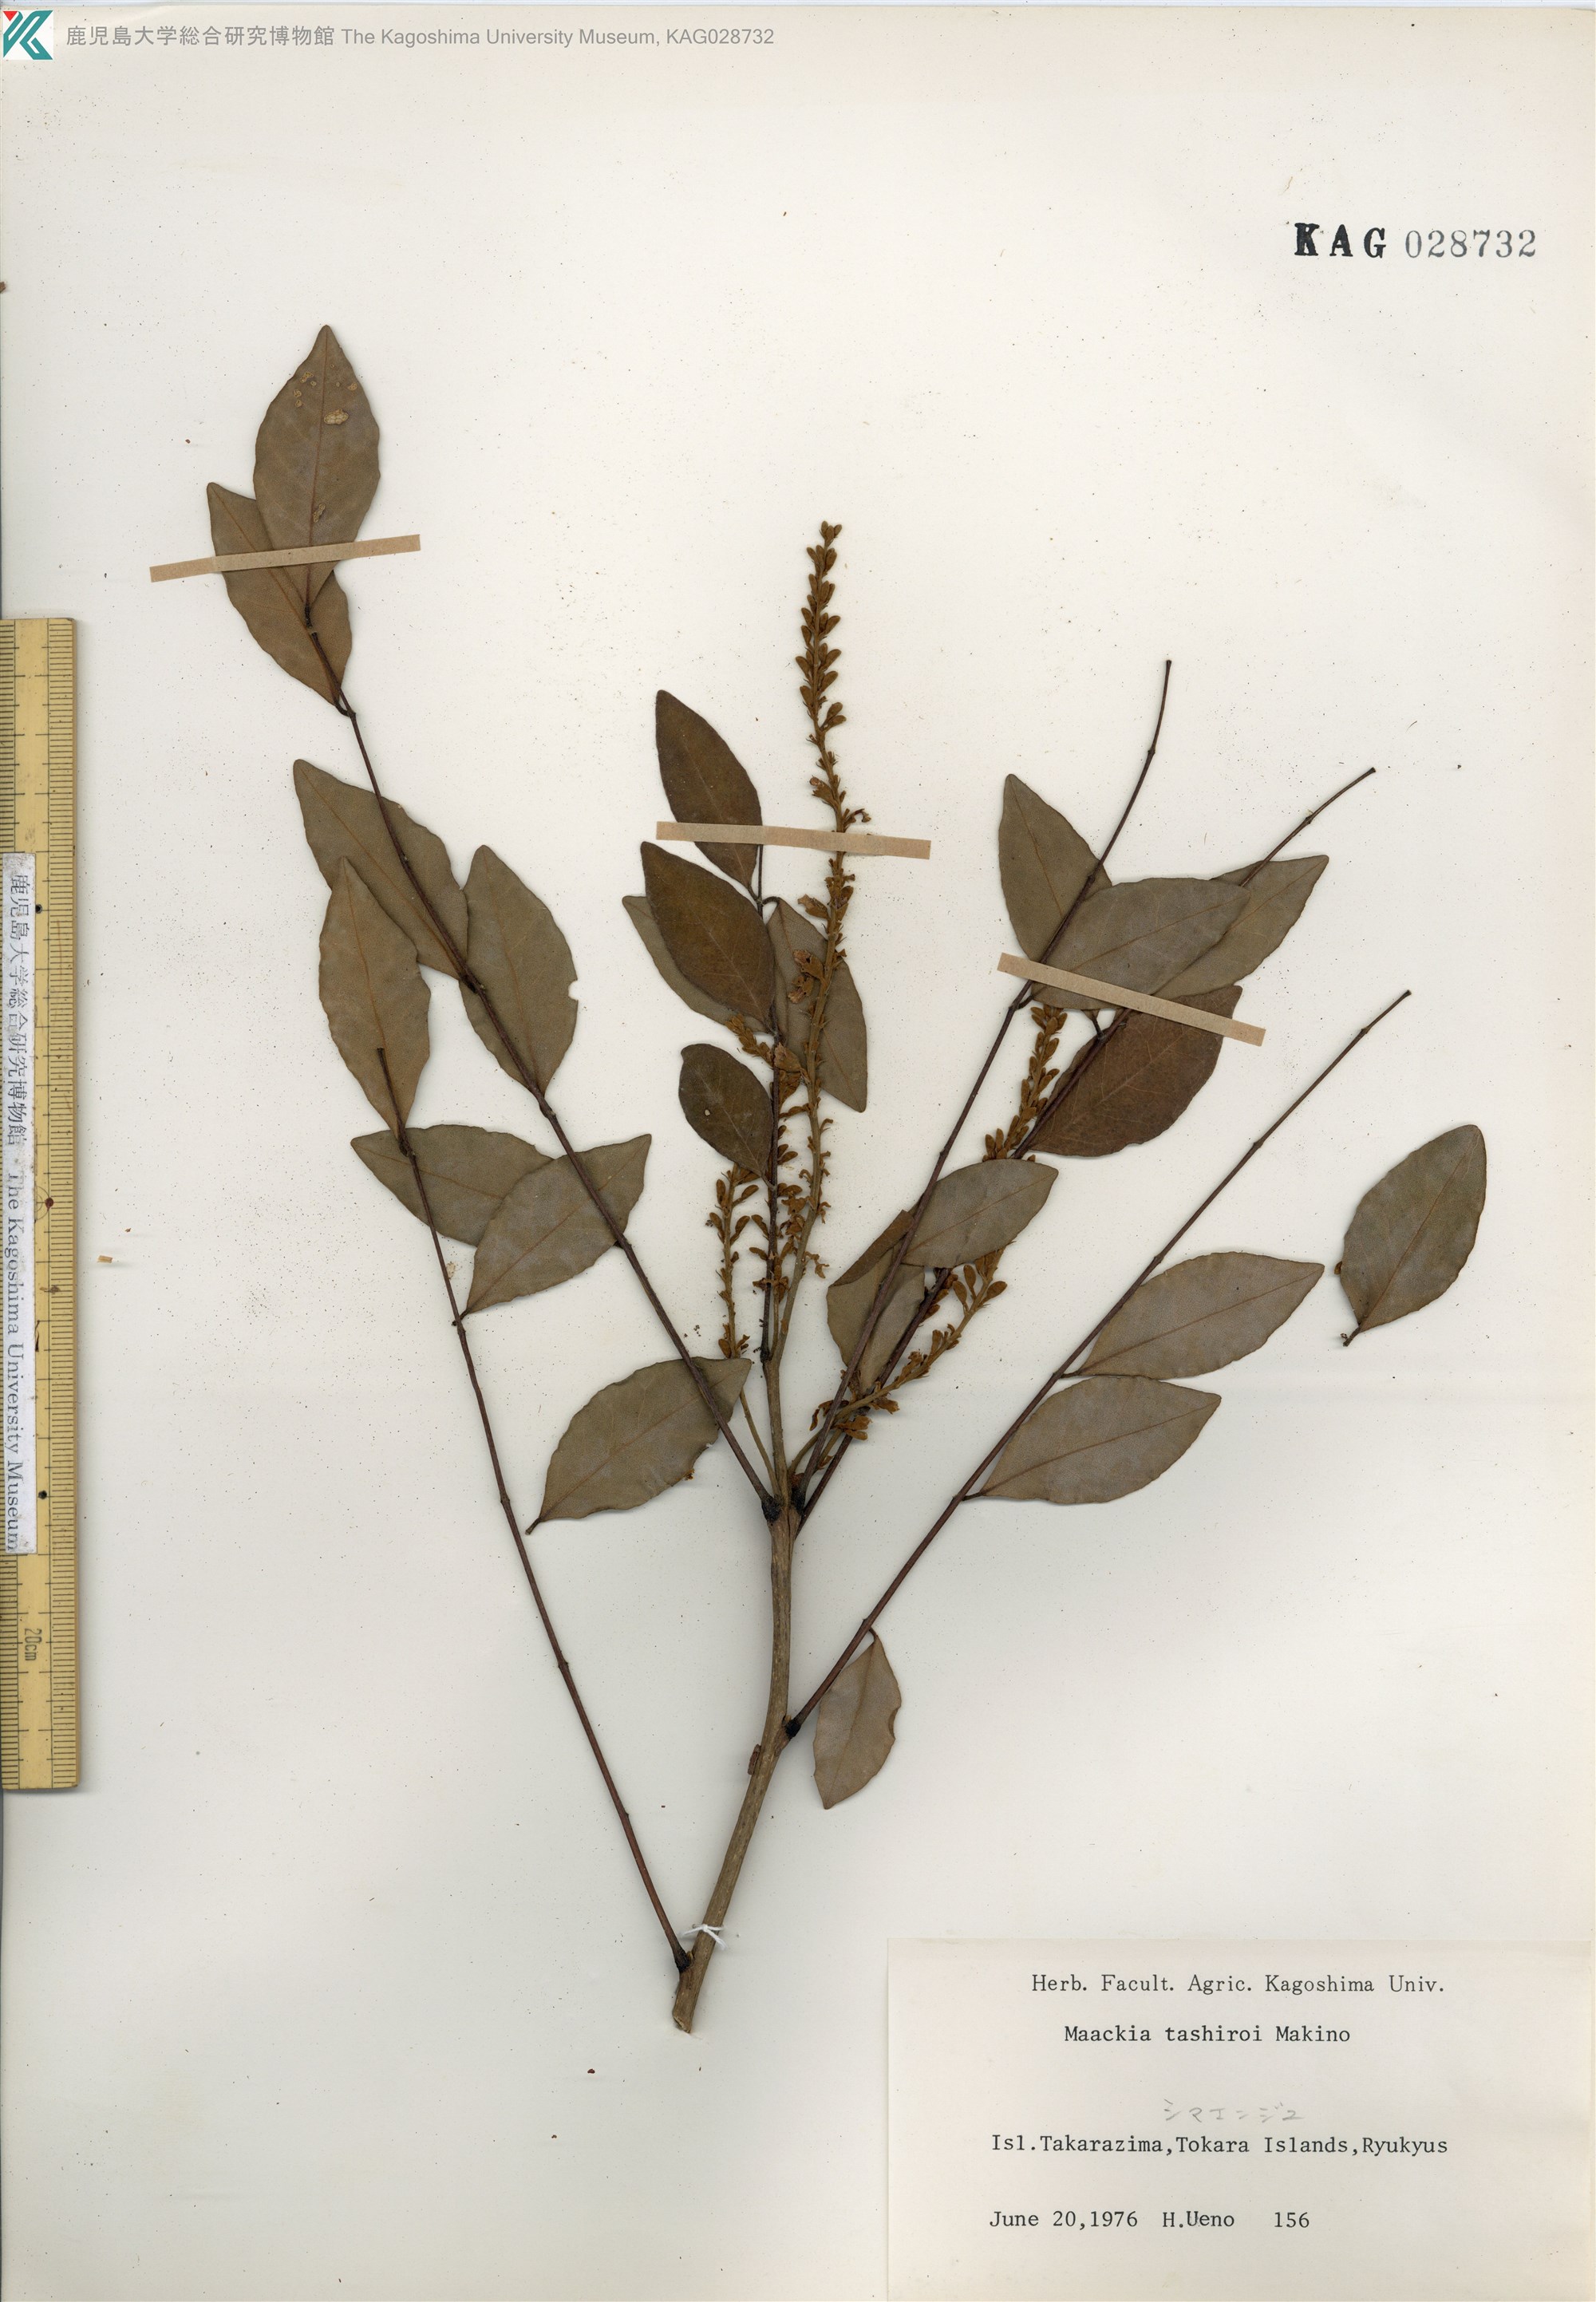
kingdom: Plantae
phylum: Tracheophyta
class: Magnoliopsida
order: Fabales
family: Fabaceae
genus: Maackia
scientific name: Maackia tashiroi
